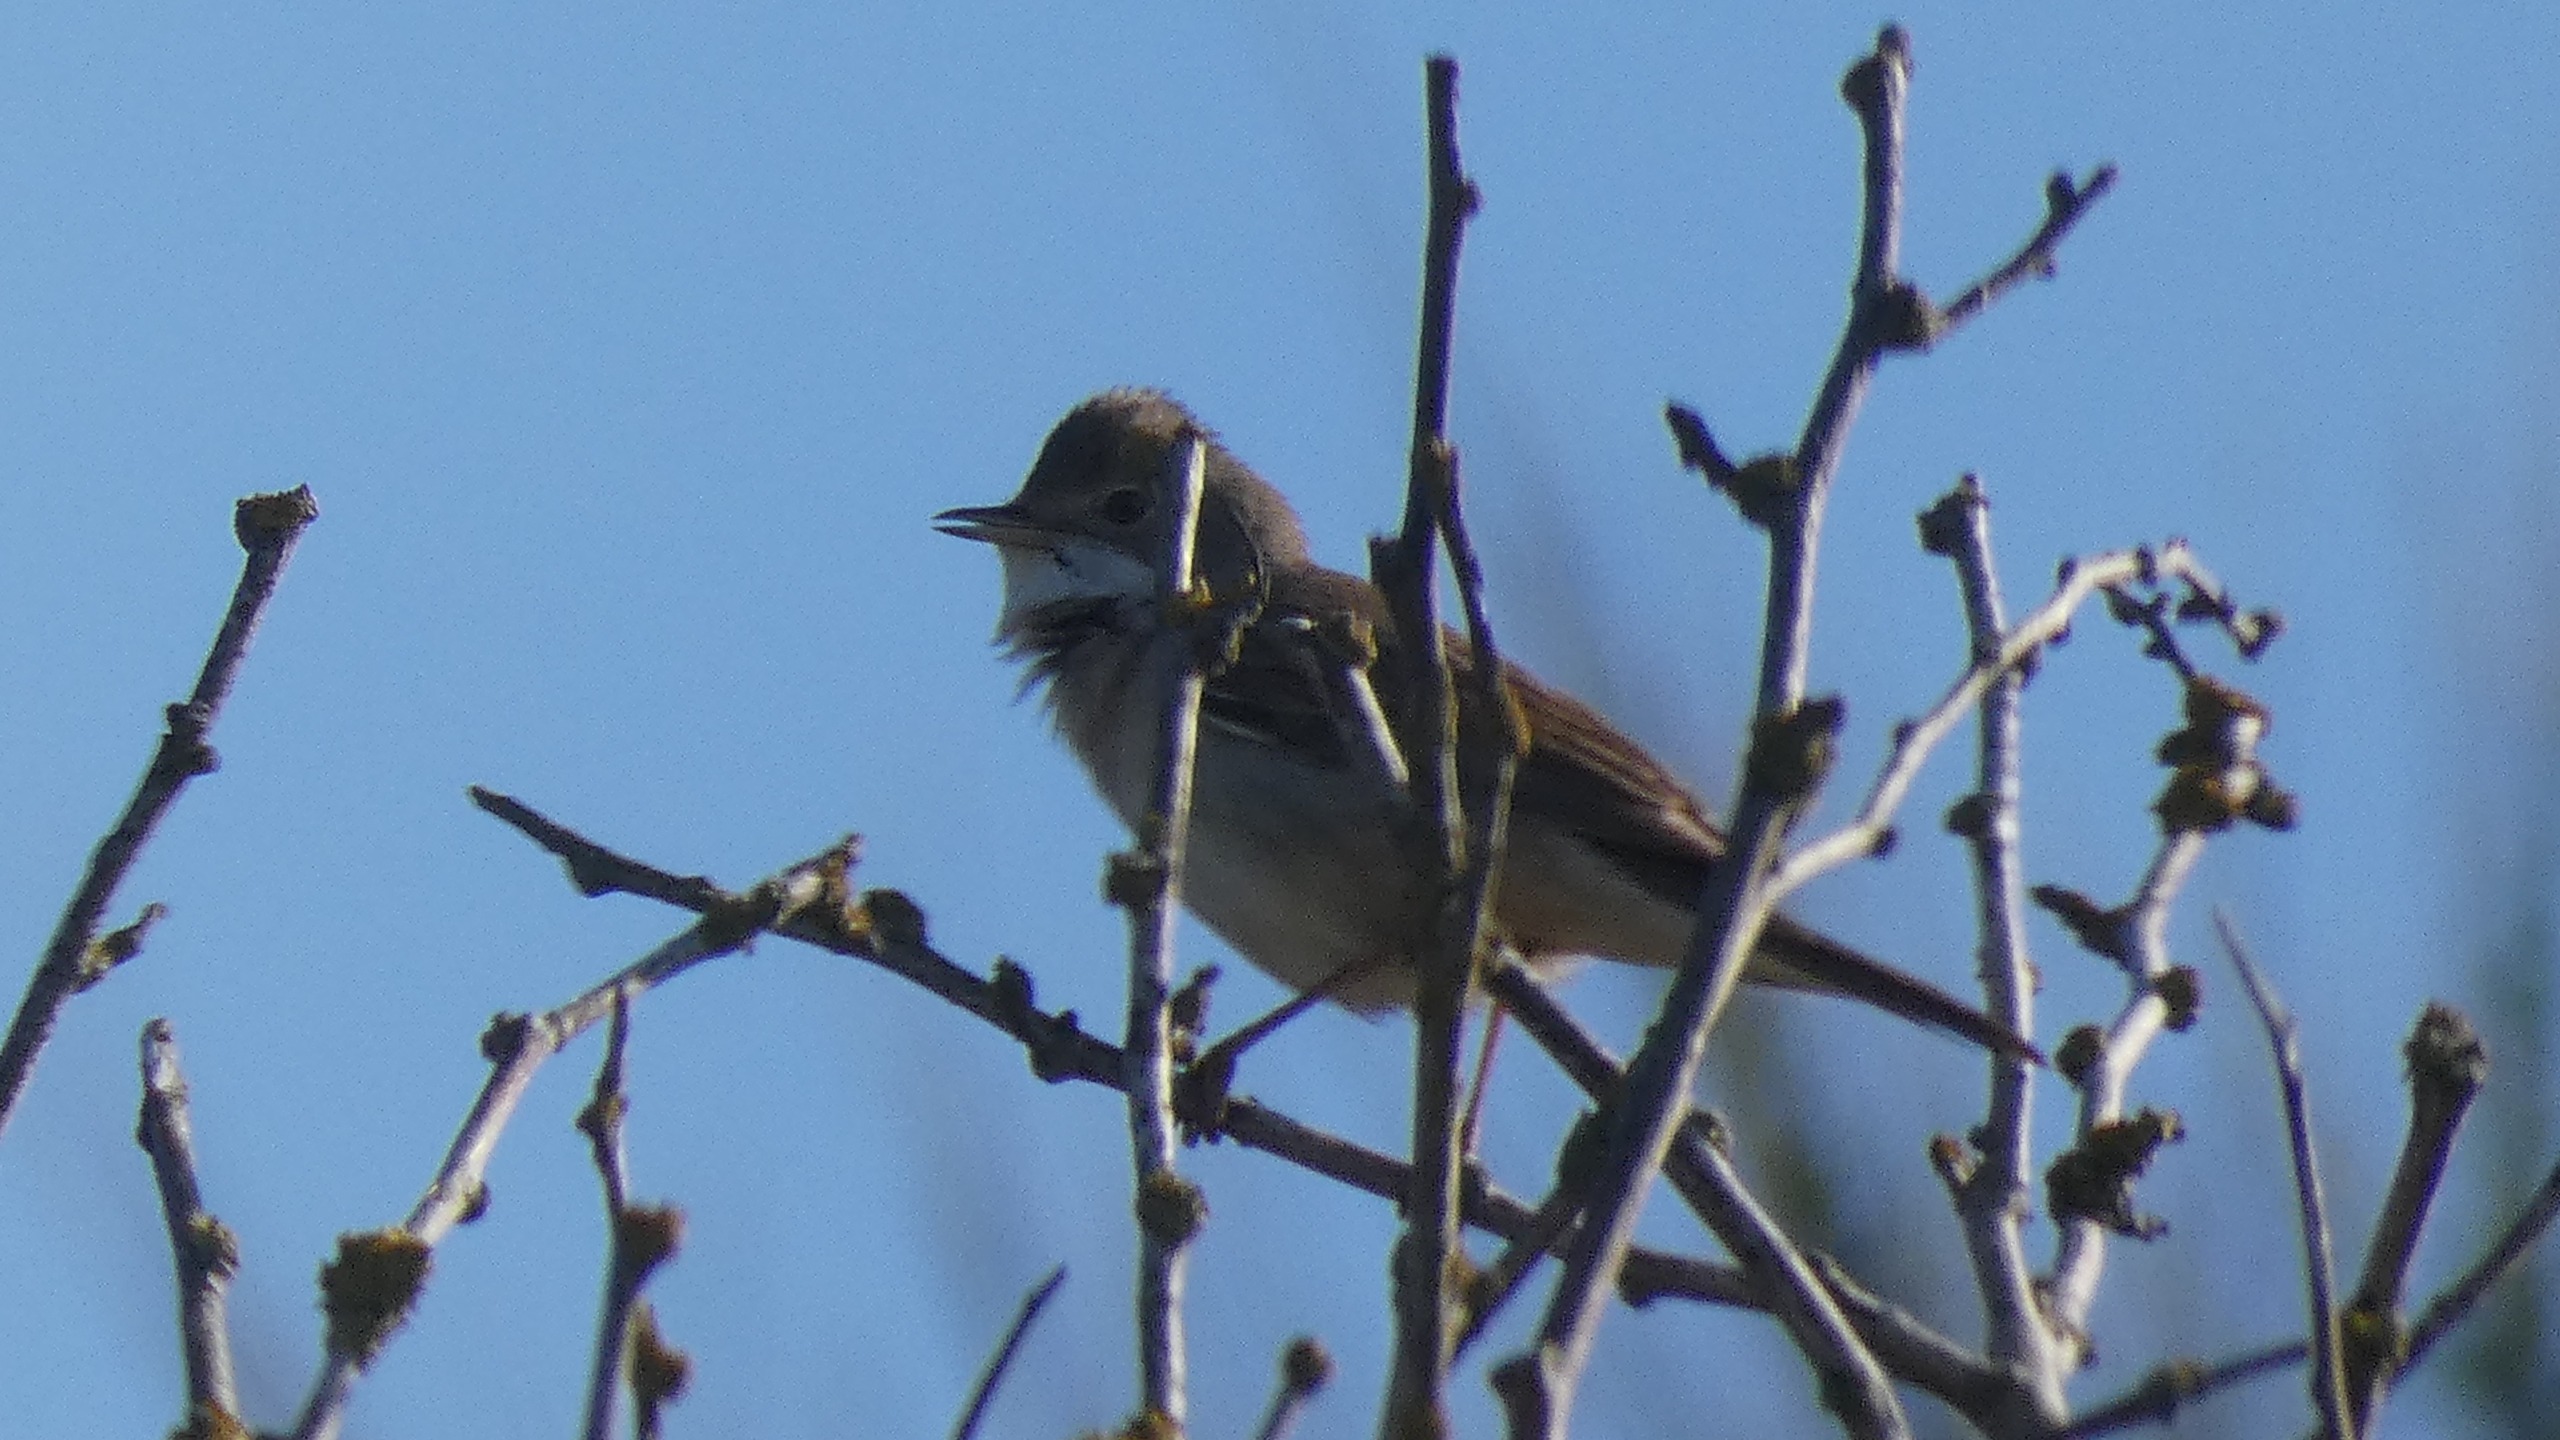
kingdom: Animalia
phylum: Chordata
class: Aves
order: Passeriformes
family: Sylviidae
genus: Sylvia
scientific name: Sylvia communis
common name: Tornsanger
